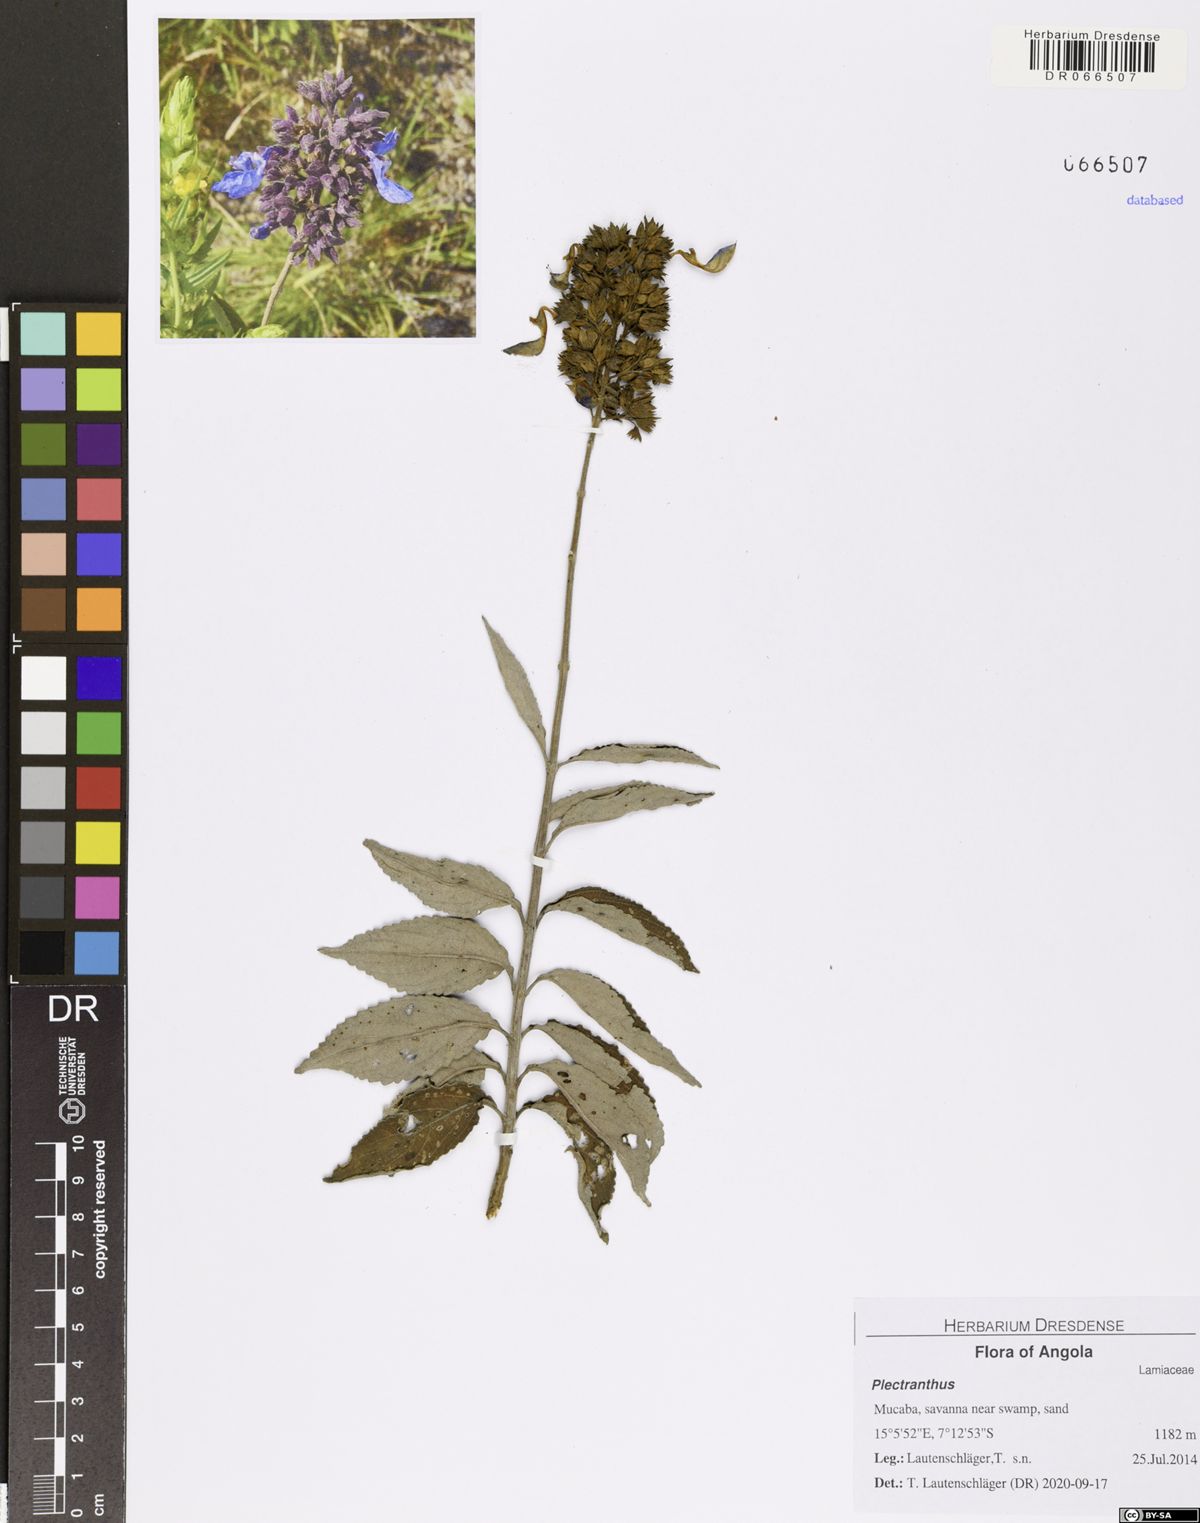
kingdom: Plantae
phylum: Tracheophyta
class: Magnoliopsida
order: Lamiales
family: Lamiaceae
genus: Coleus
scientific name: Coleus mirabilis
